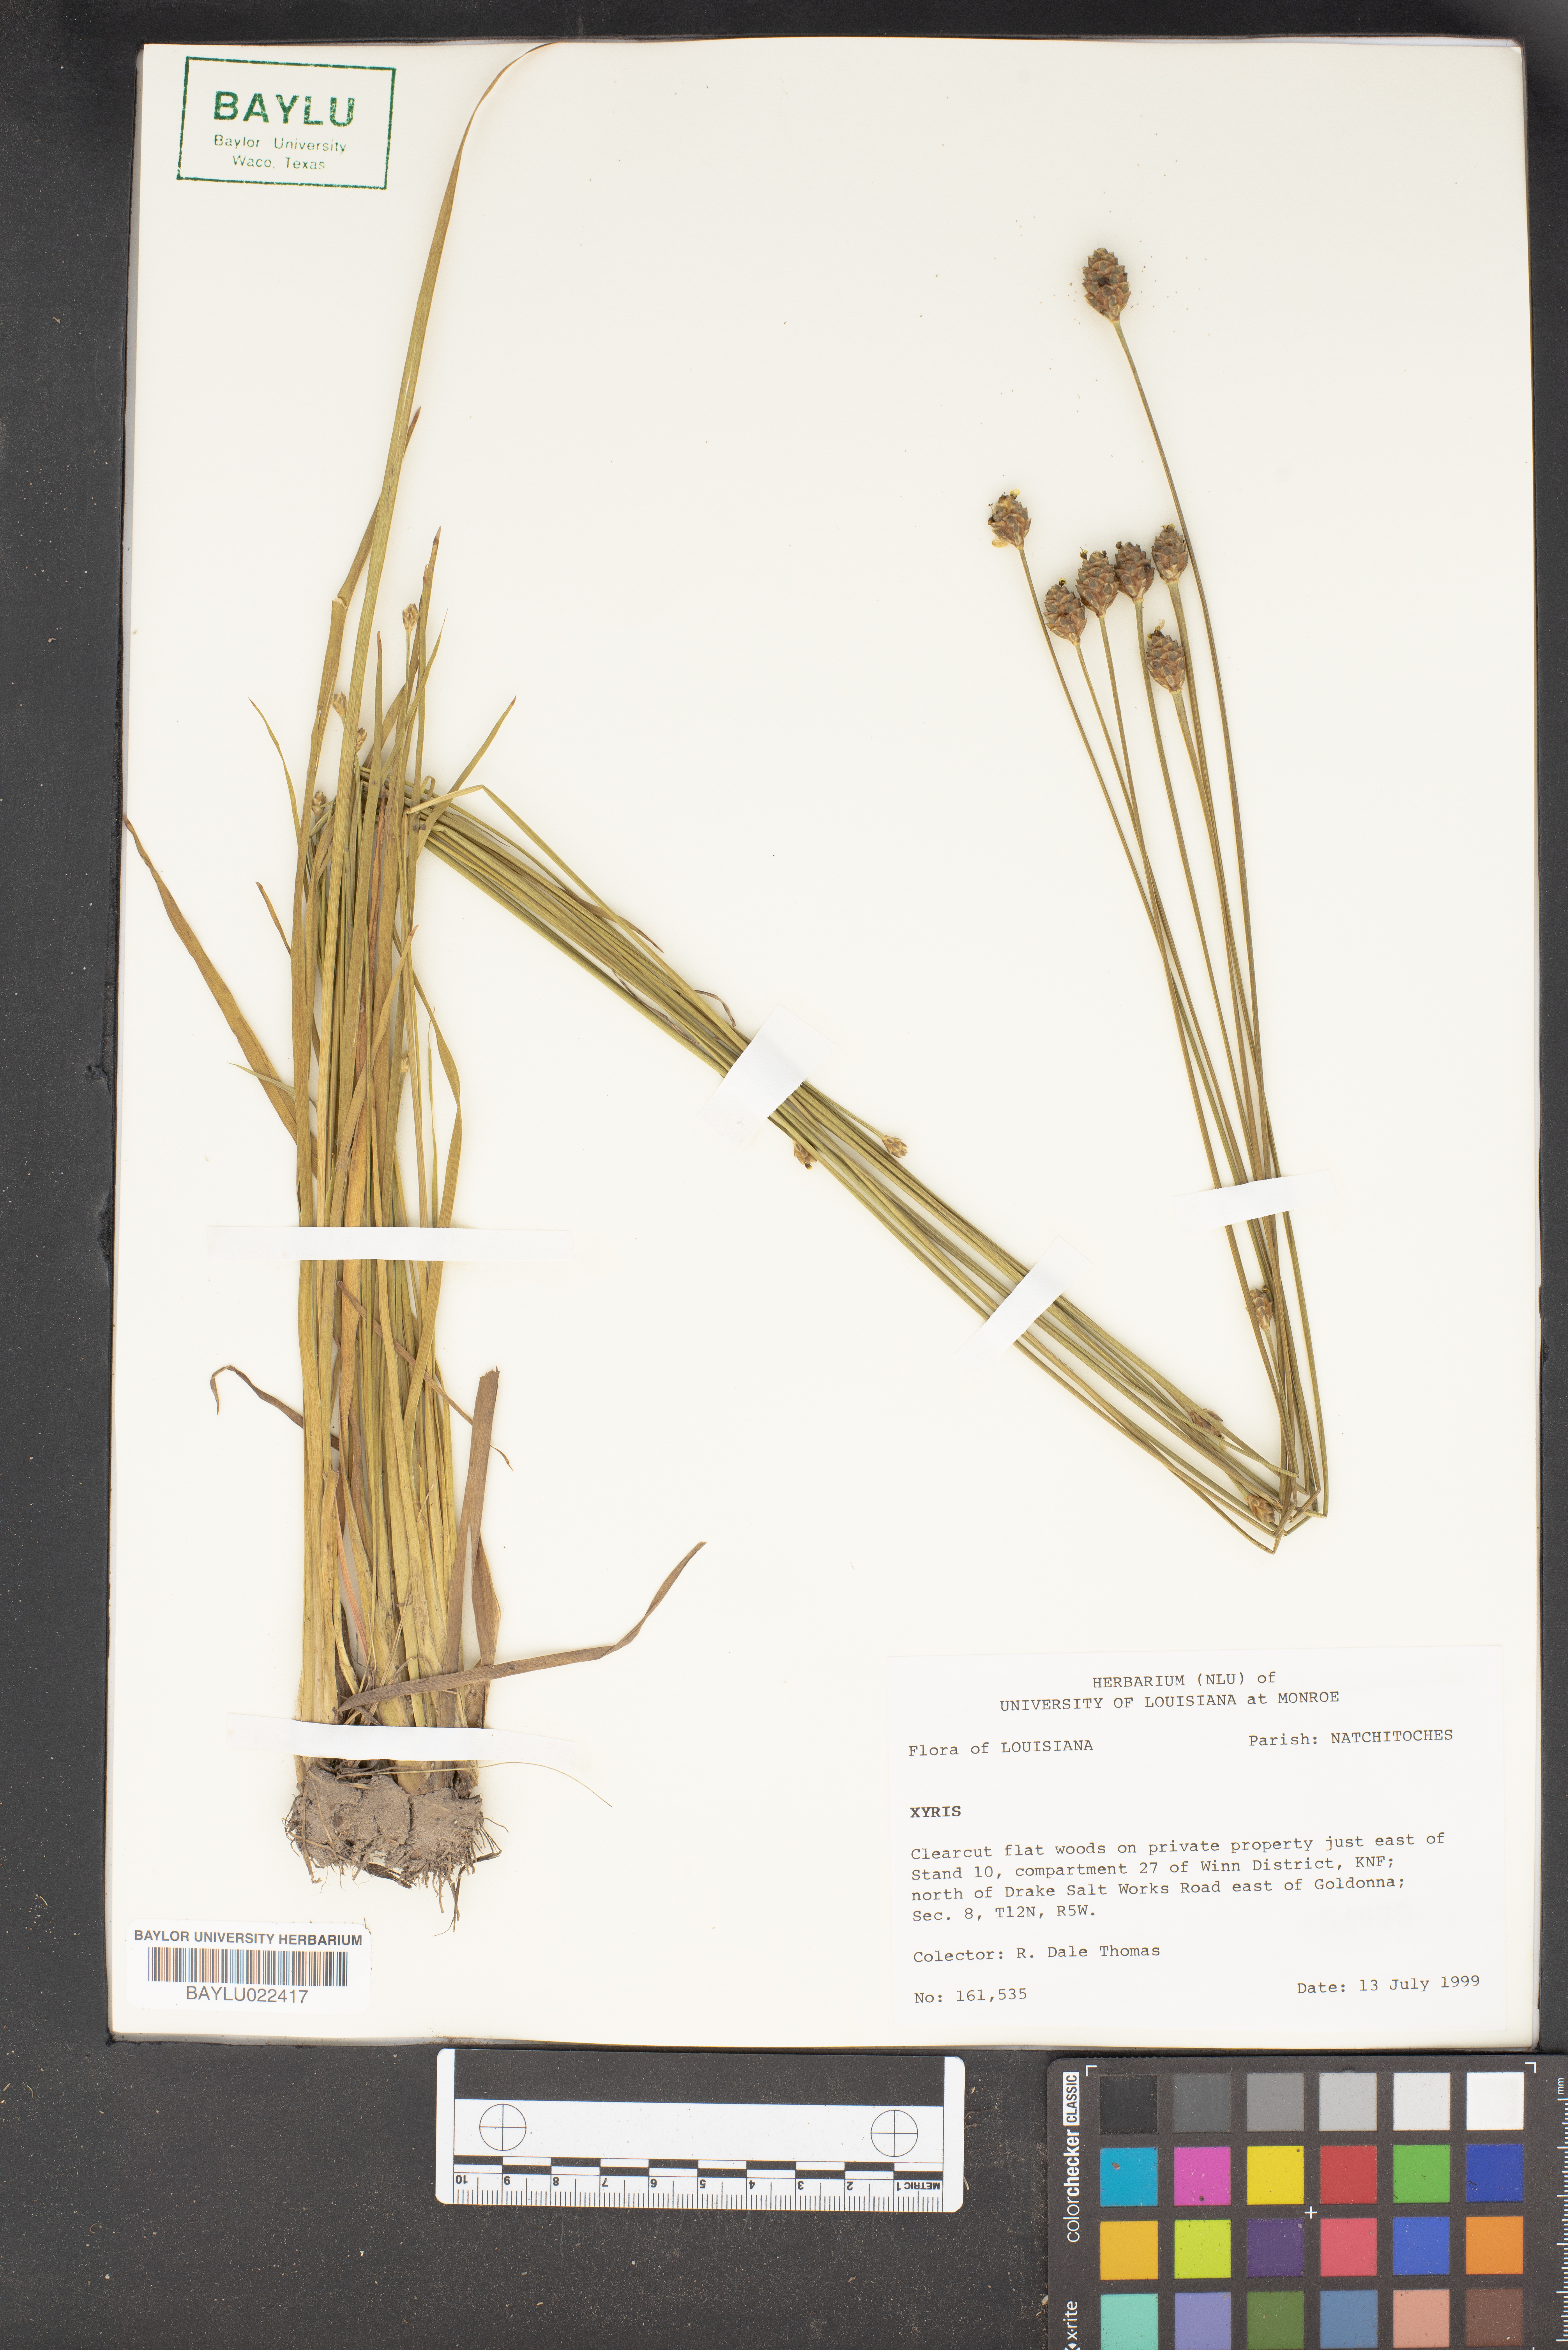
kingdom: Plantae
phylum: Tracheophyta
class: Liliopsida
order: Poales
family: Xyridaceae
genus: Xyris
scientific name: Xyris
